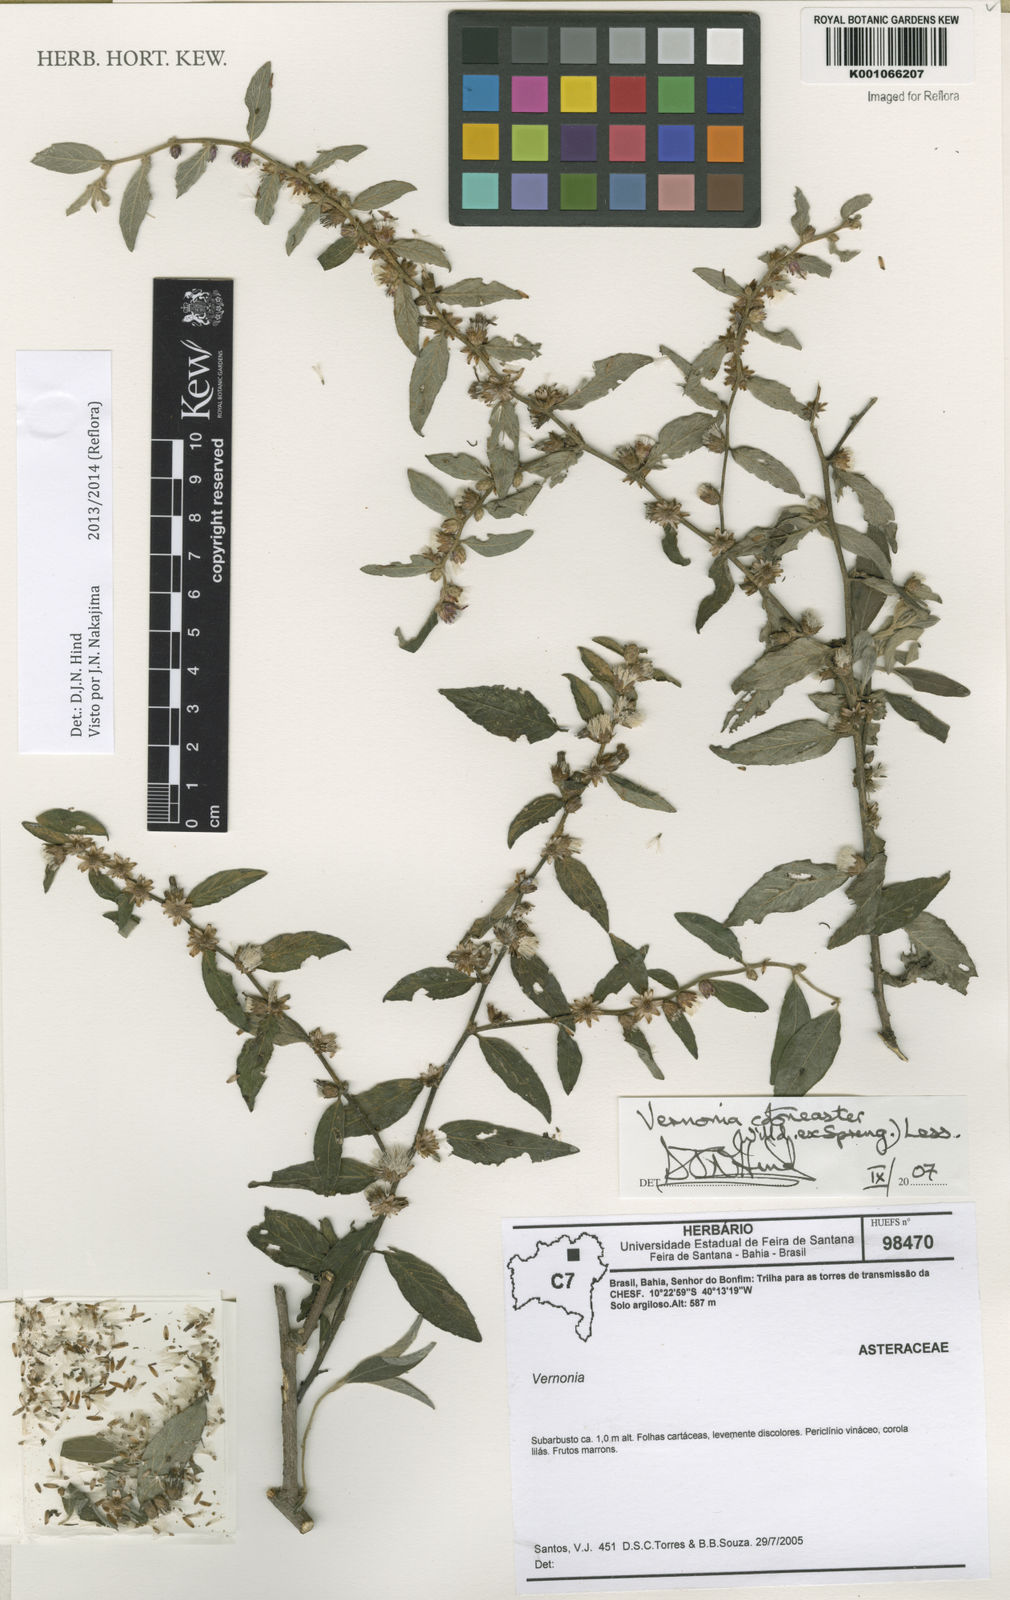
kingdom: Plantae
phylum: Tracheophyta
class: Magnoliopsida
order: Asterales
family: Asteraceae
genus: Lepidaploa
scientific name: Lepidaploa cotoneaster
